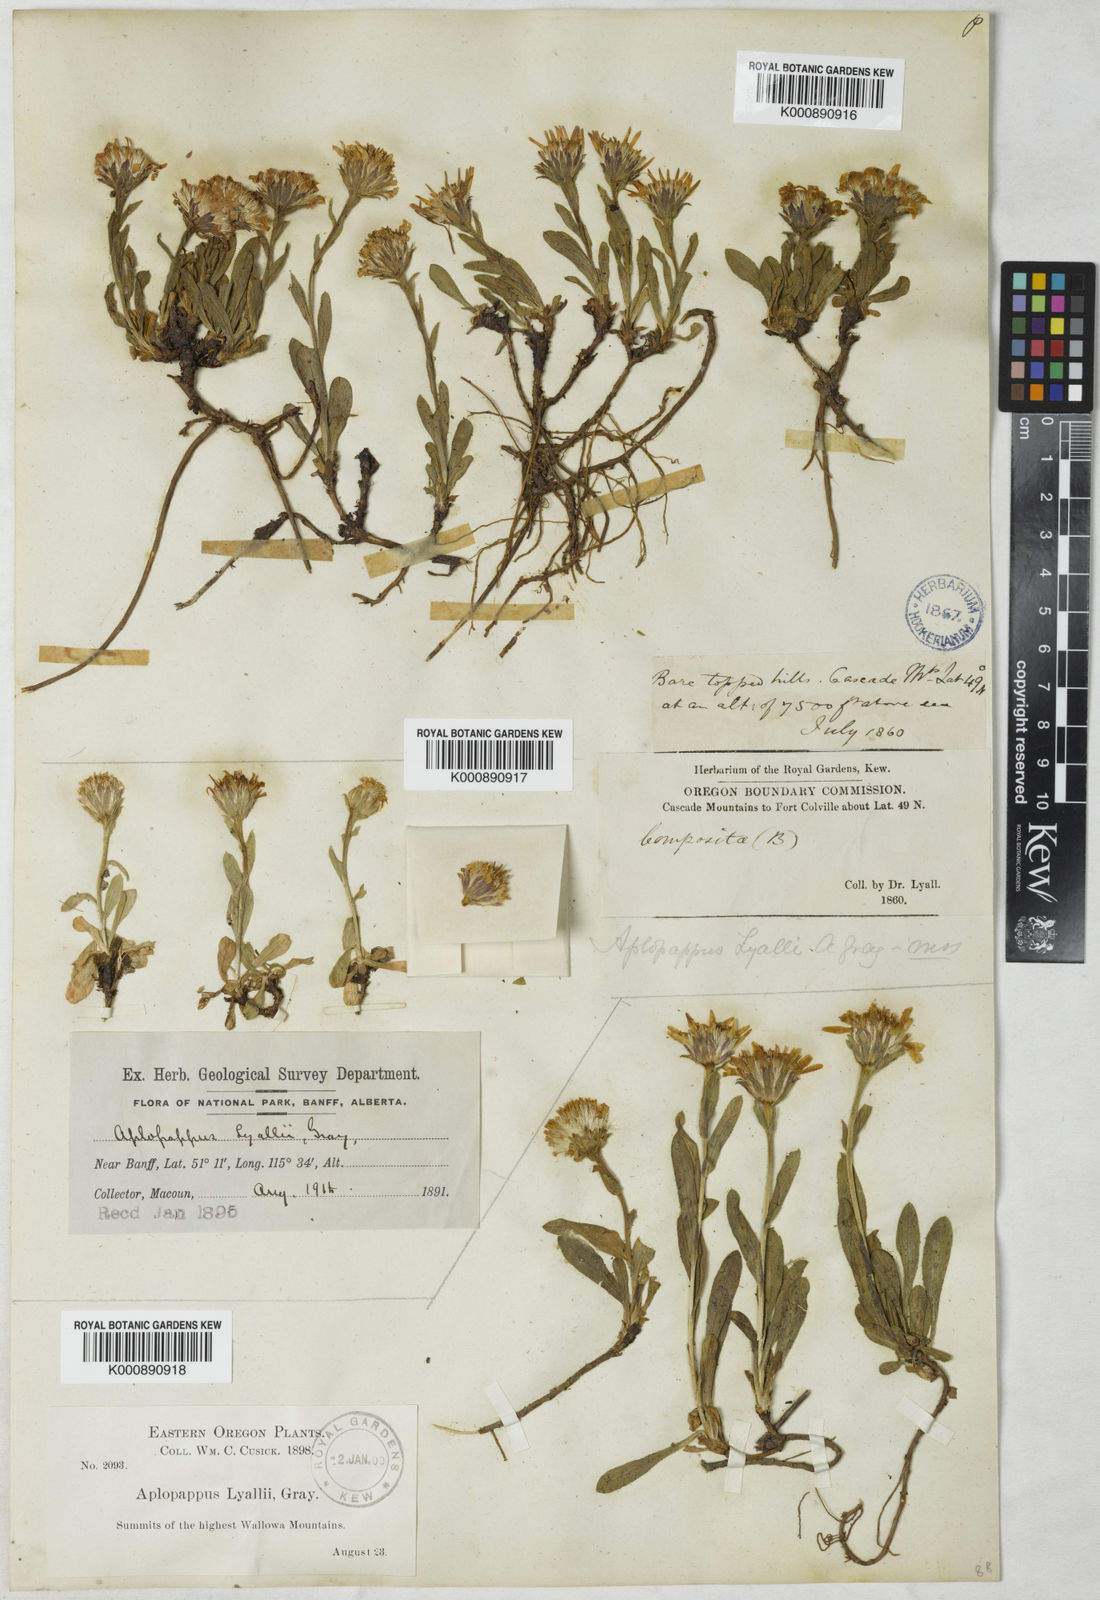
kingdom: Plantae
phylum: Tracheophyta
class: Magnoliopsida
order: Asterales
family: Asteraceae
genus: Tonestus
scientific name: Tonestus lyallii
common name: Lyall's goldenweed
